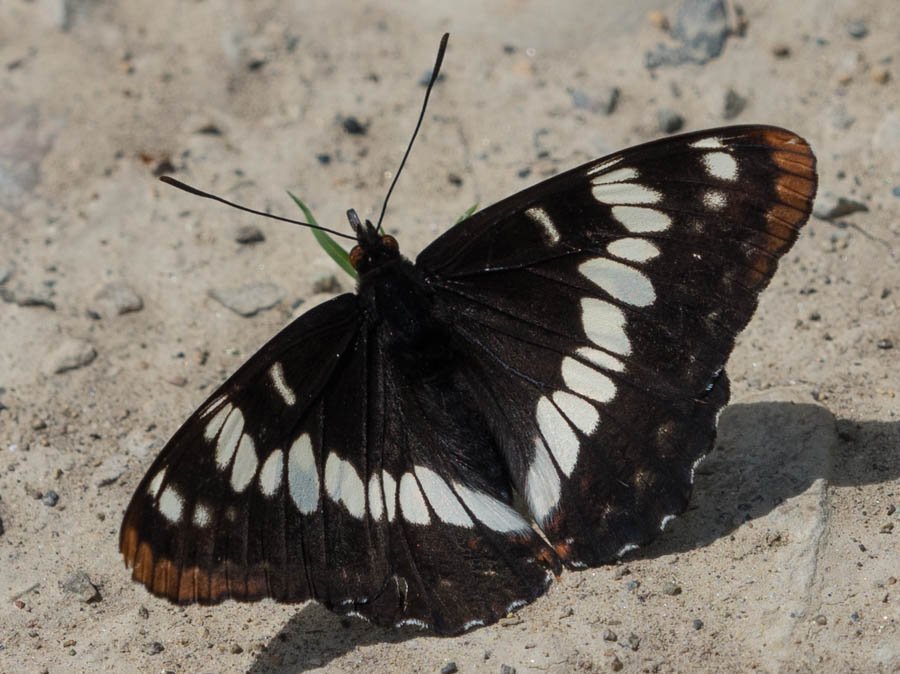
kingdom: Animalia
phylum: Arthropoda
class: Insecta
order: Lepidoptera
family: Nymphalidae
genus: Limenitis
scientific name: Limenitis lorquini
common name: Lorquin's Admiral
